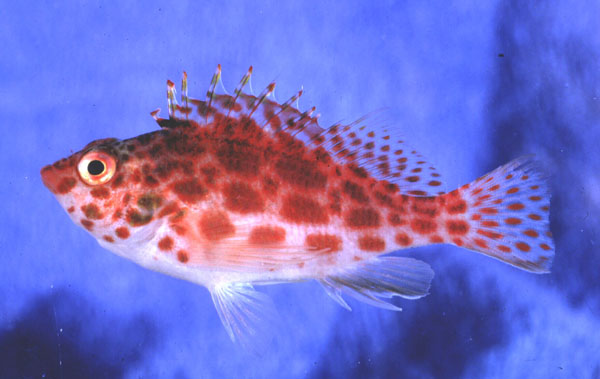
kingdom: Animalia
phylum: Chordata
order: Perciformes
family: Cirrhitidae
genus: Cirrhitichthys
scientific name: Cirrhitichthys oxycephalus
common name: Spotted hawkfish
